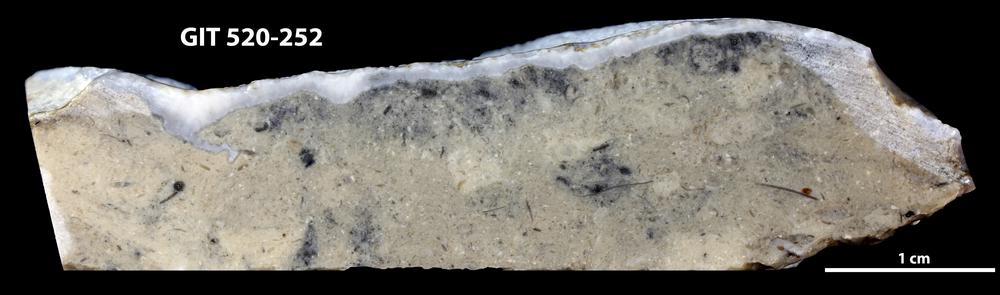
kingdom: Animalia
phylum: Cnidaria
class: Anthozoa
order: Heliolitina
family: Heliolitidae
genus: Coccoseris
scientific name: Coccoseris
